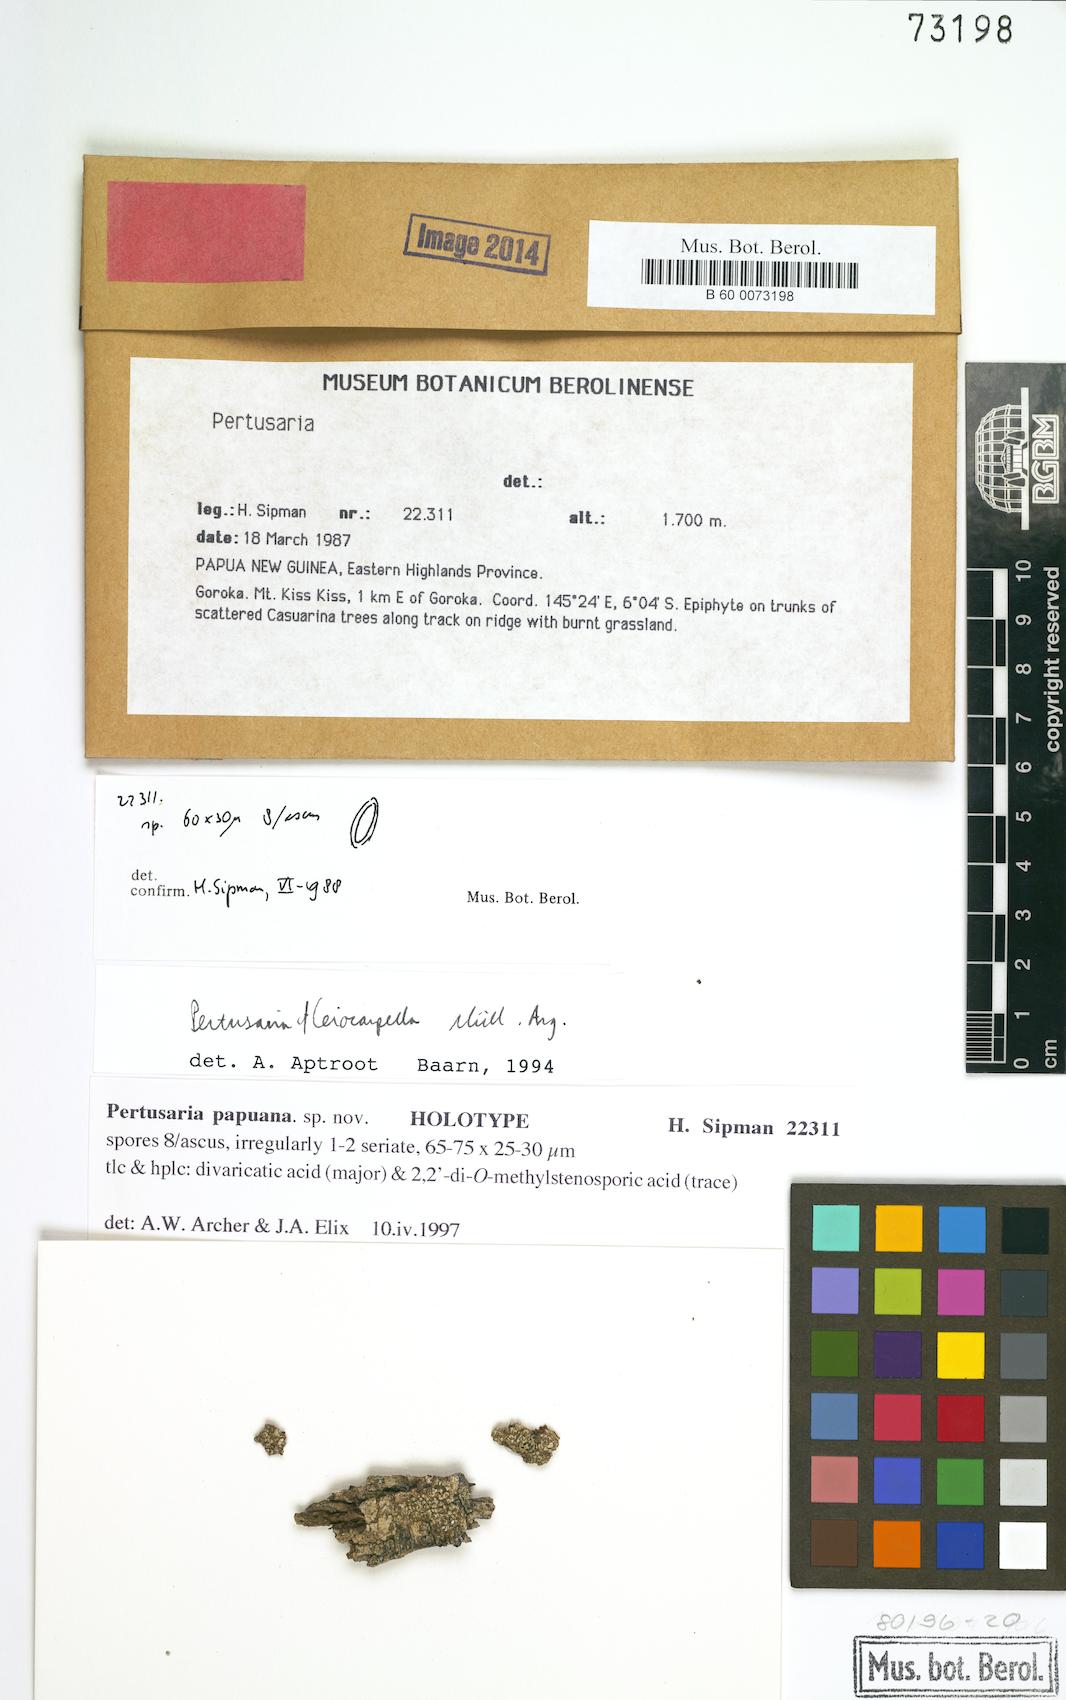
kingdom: Fungi
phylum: Ascomycota
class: Lecanoromycetes
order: Pertusariales
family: Pertusariaceae
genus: Pertusaria
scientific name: Pertusaria
